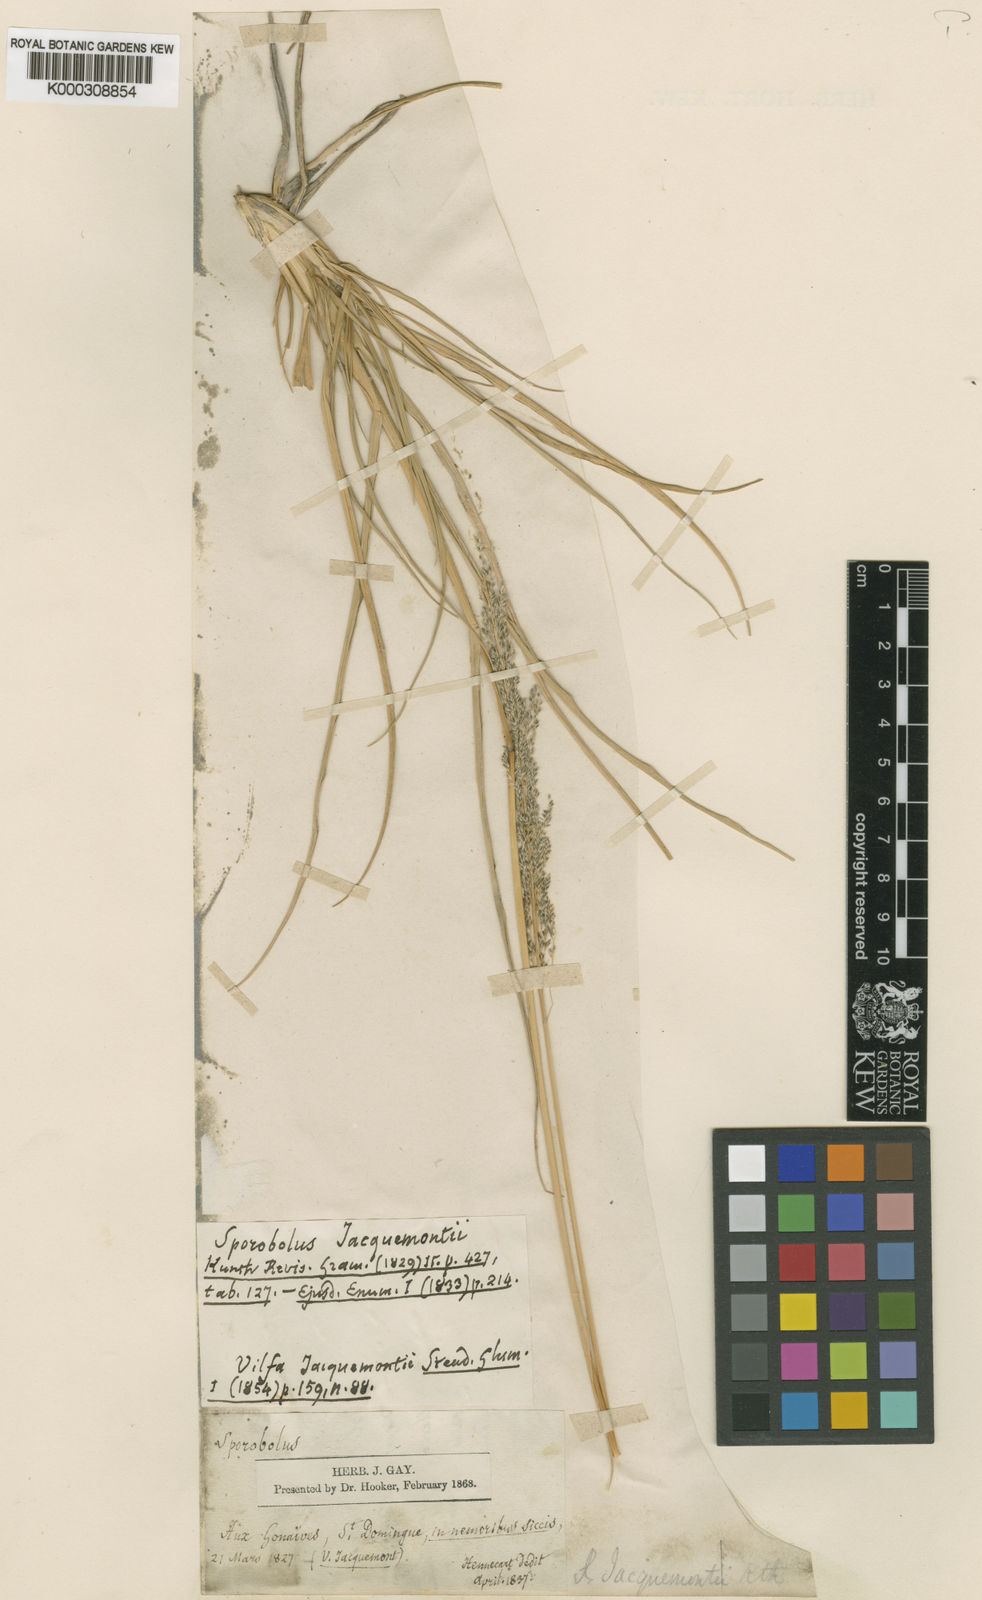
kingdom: Plantae
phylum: Tracheophyta
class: Liliopsida
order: Poales
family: Poaceae
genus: Sporobolus
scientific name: Sporobolus domingensis
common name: Coral dropseed
